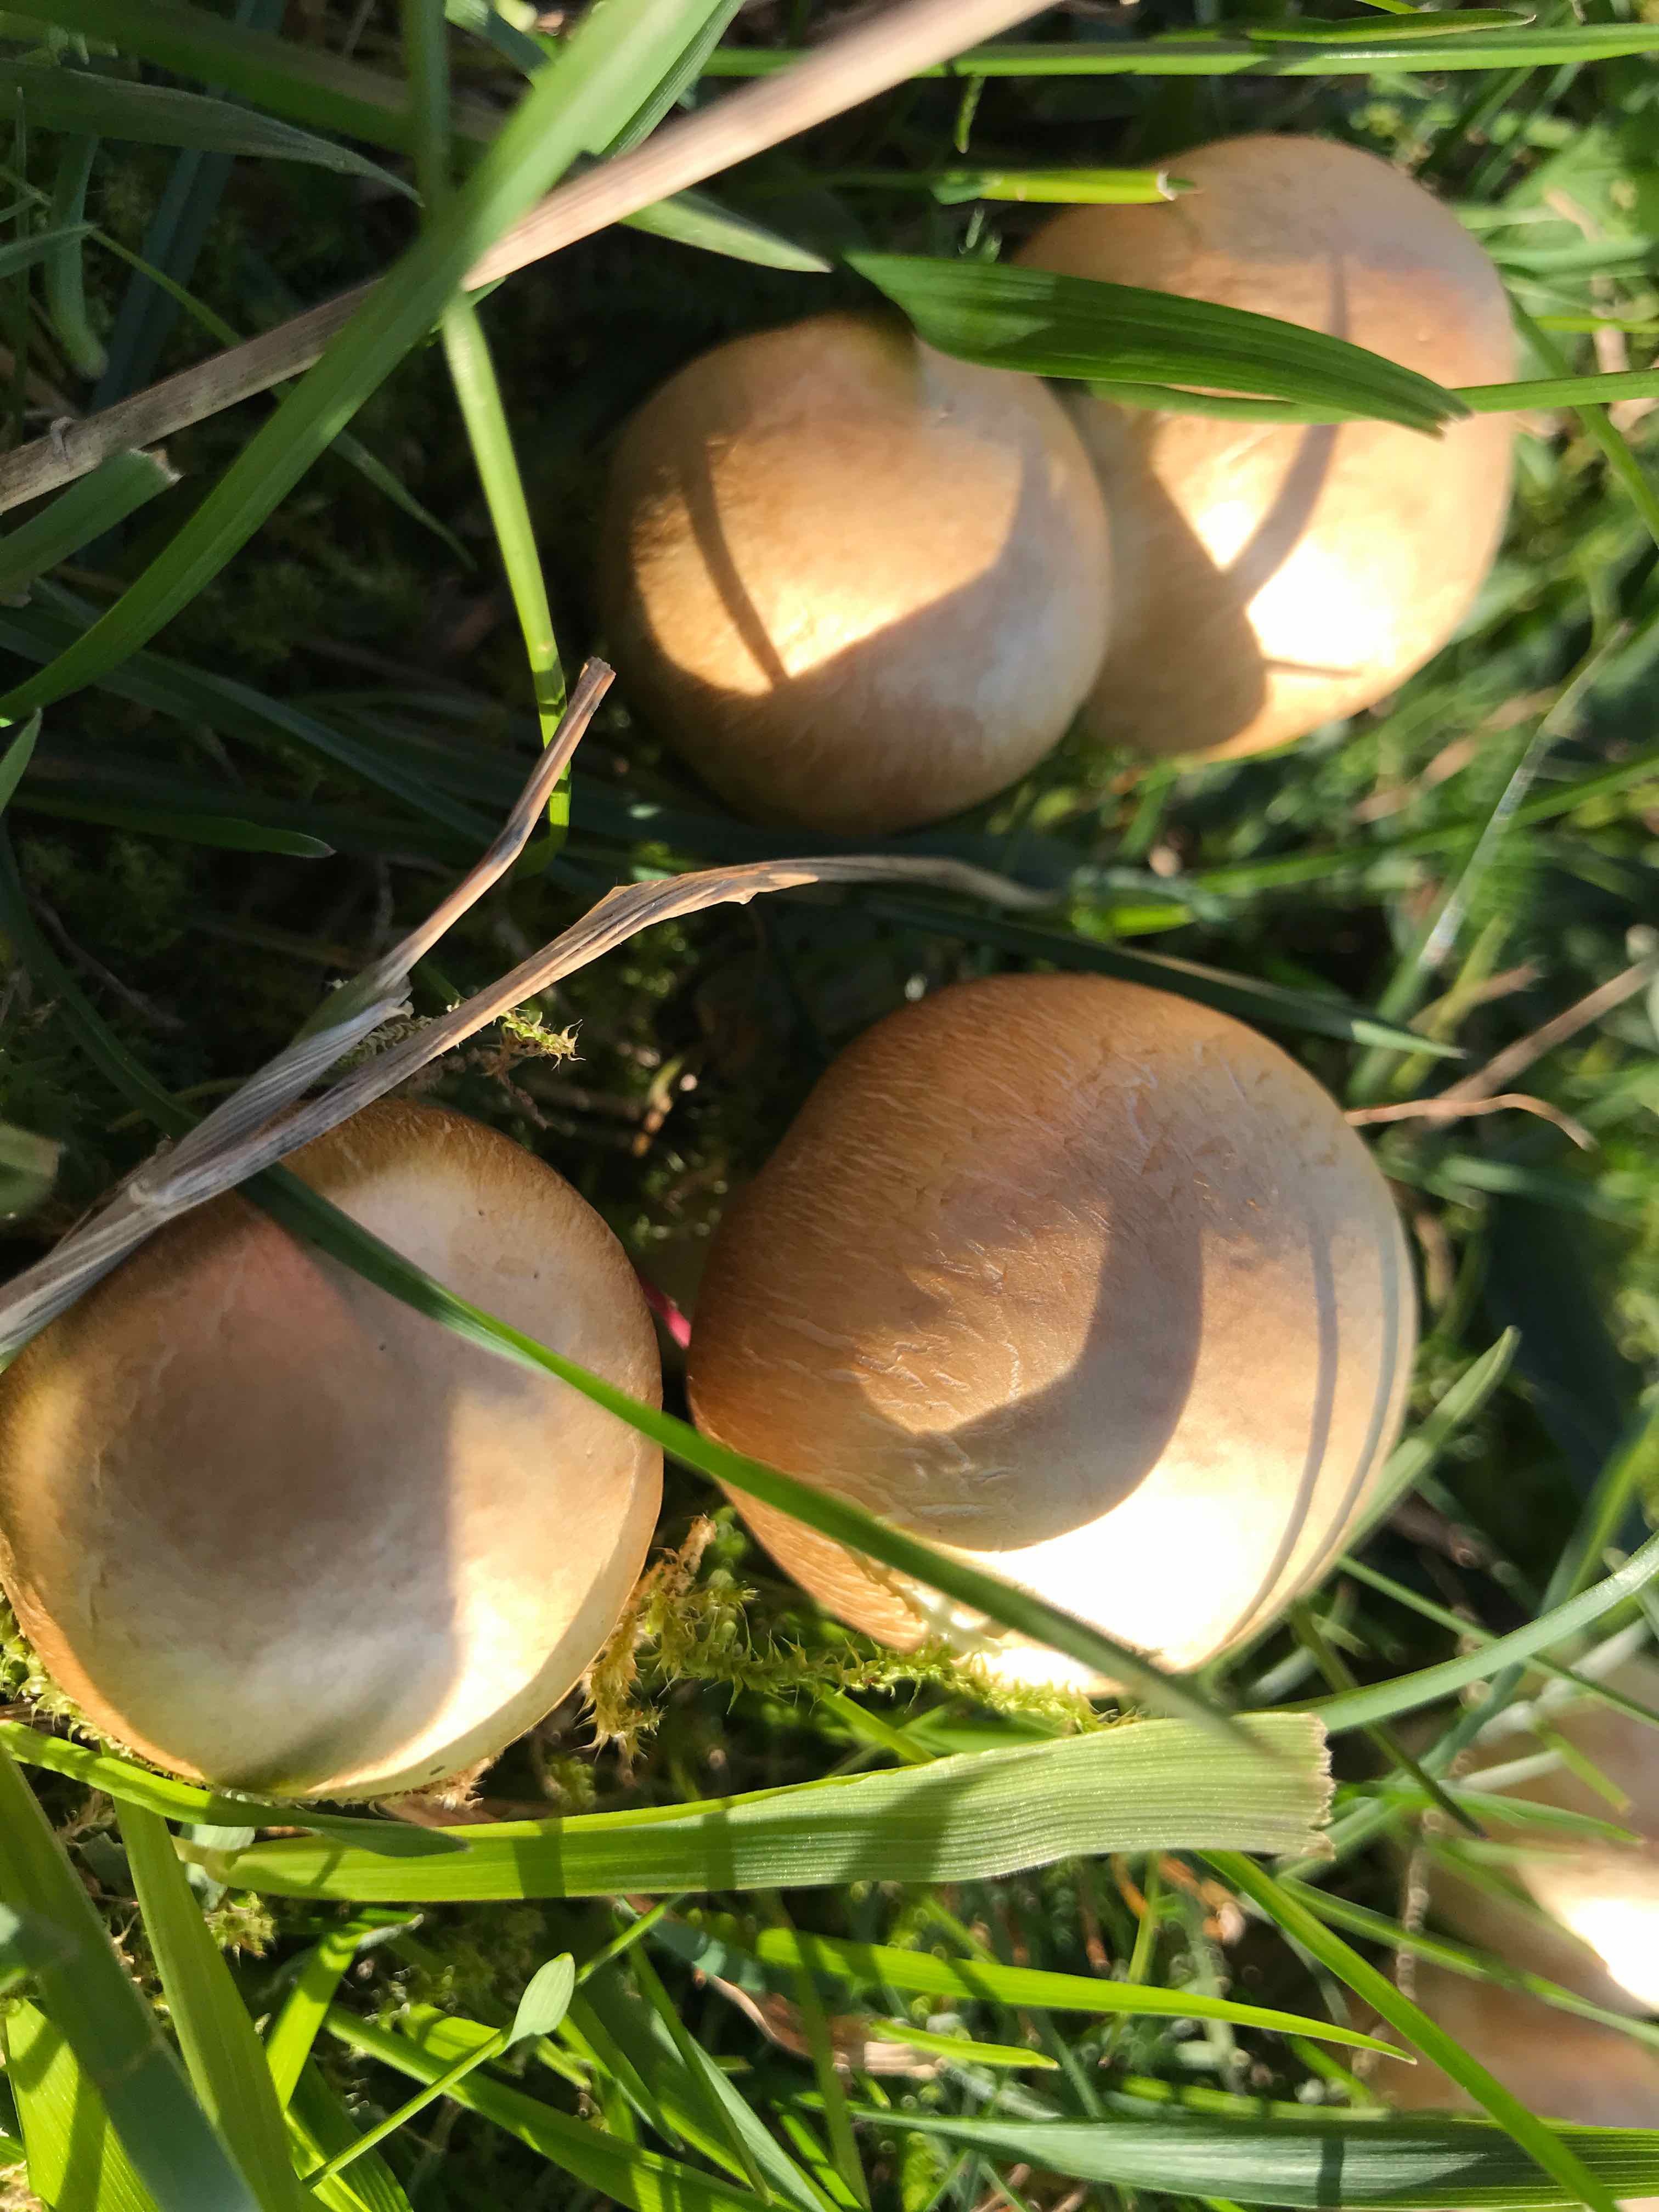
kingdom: Fungi
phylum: Basidiomycota
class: Agaricomycetes
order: Agaricales
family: Agaricaceae
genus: Agaricus
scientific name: Agaricus
